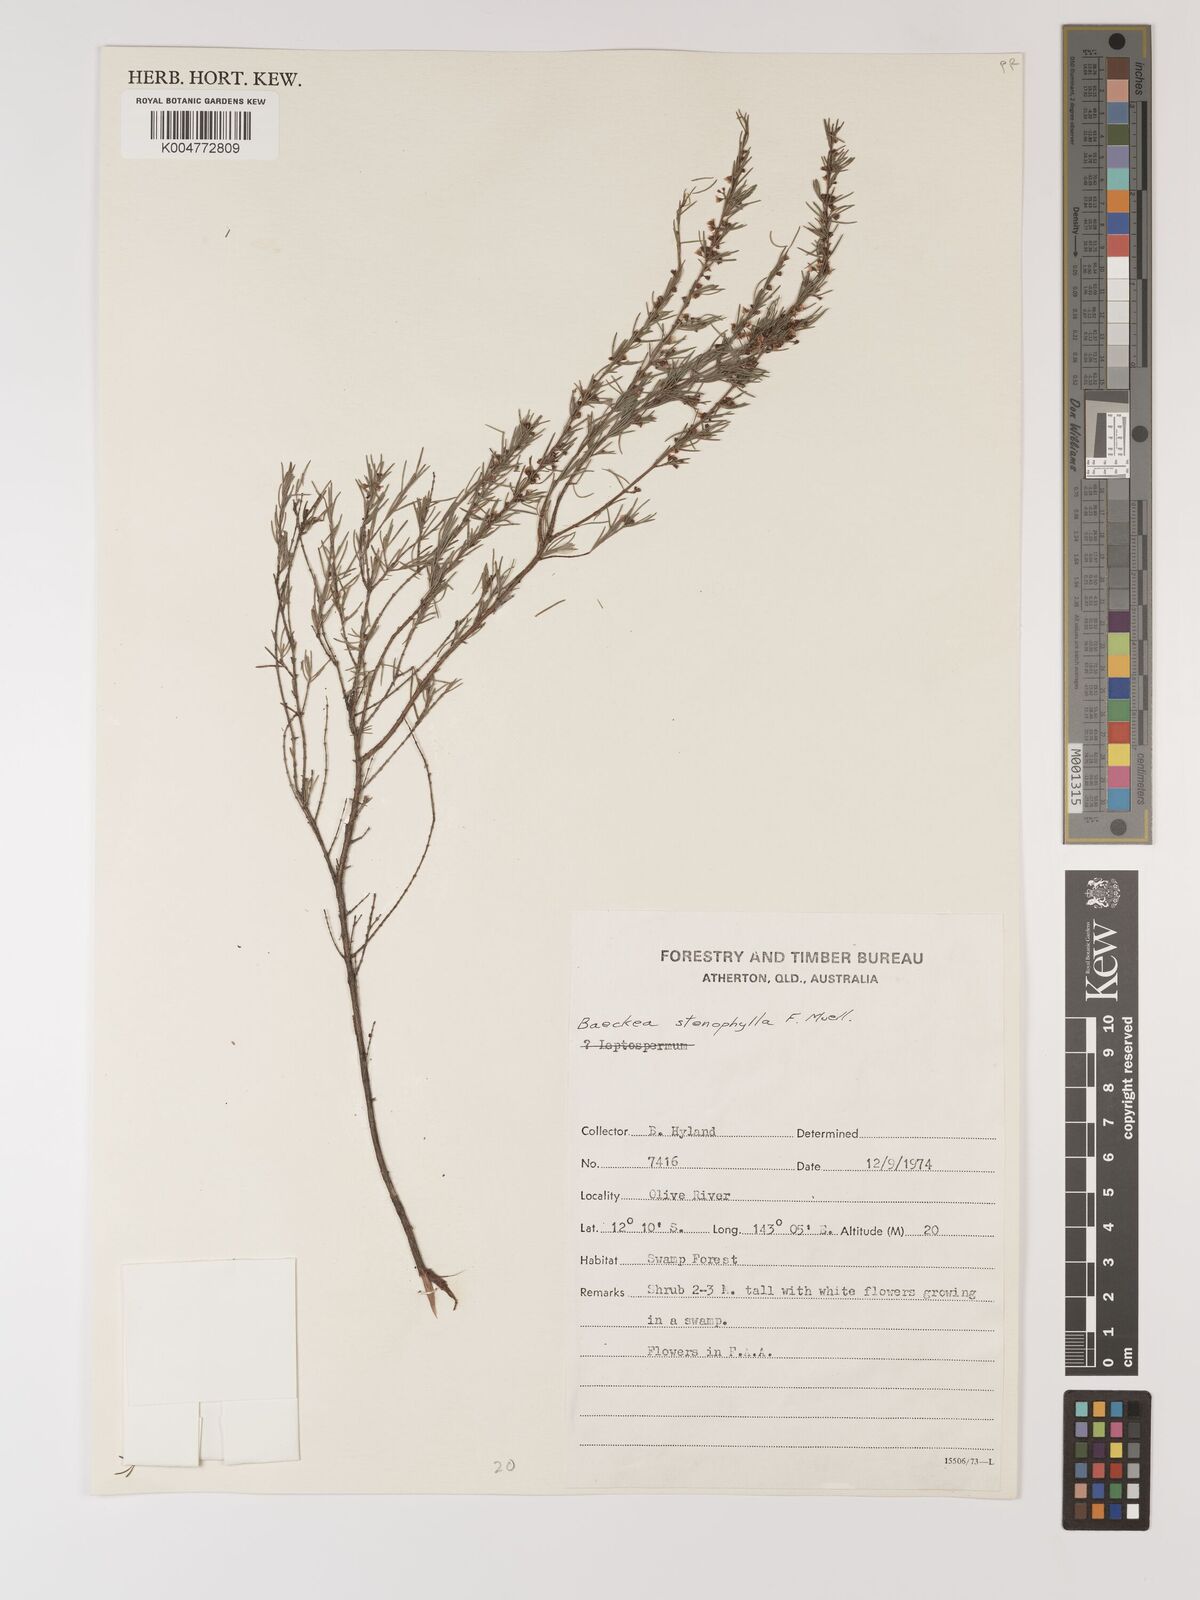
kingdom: Plantae
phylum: Tracheophyta
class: Magnoliopsida
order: Myrtales
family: Myrtaceae
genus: Baeckea
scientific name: Baeckea frutescens
